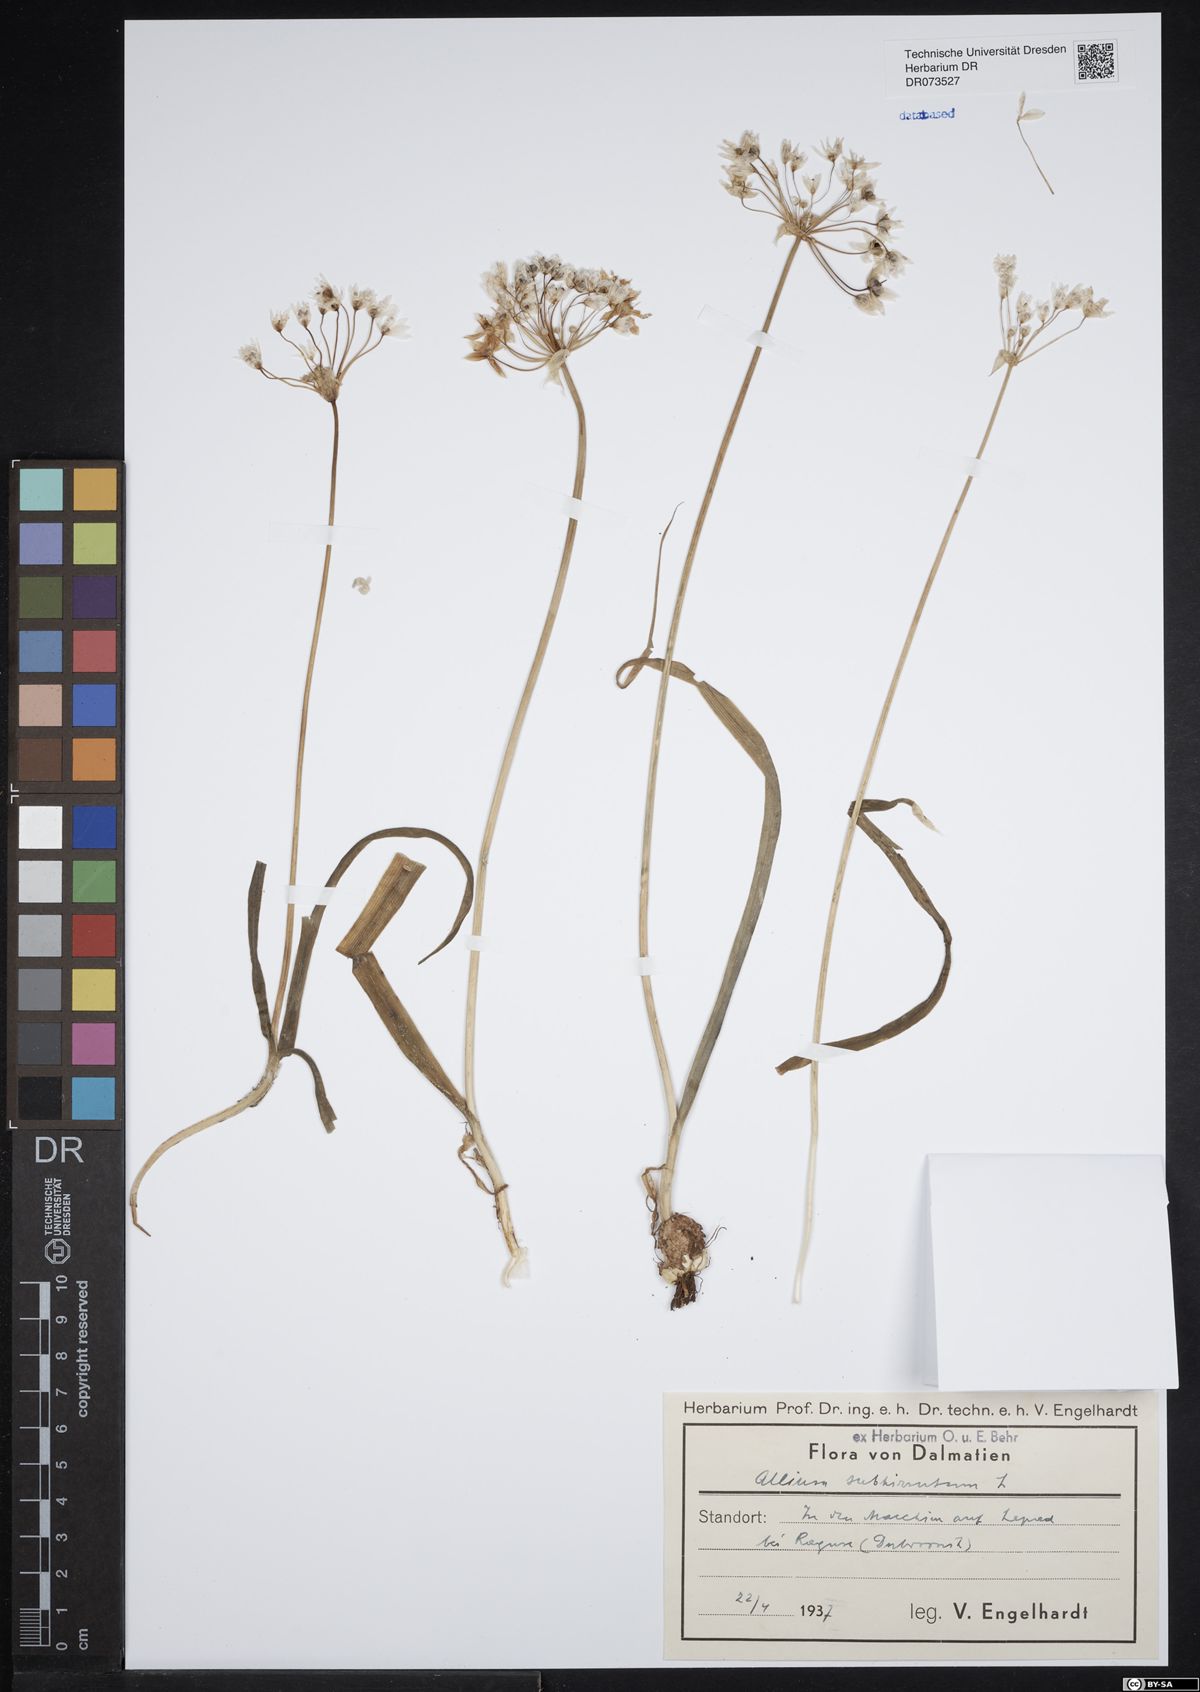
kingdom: Plantae
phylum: Tracheophyta
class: Liliopsida
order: Asparagales
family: Amaryllidaceae
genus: Allium
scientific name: Allium subhirsutum
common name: Hairy garlic
